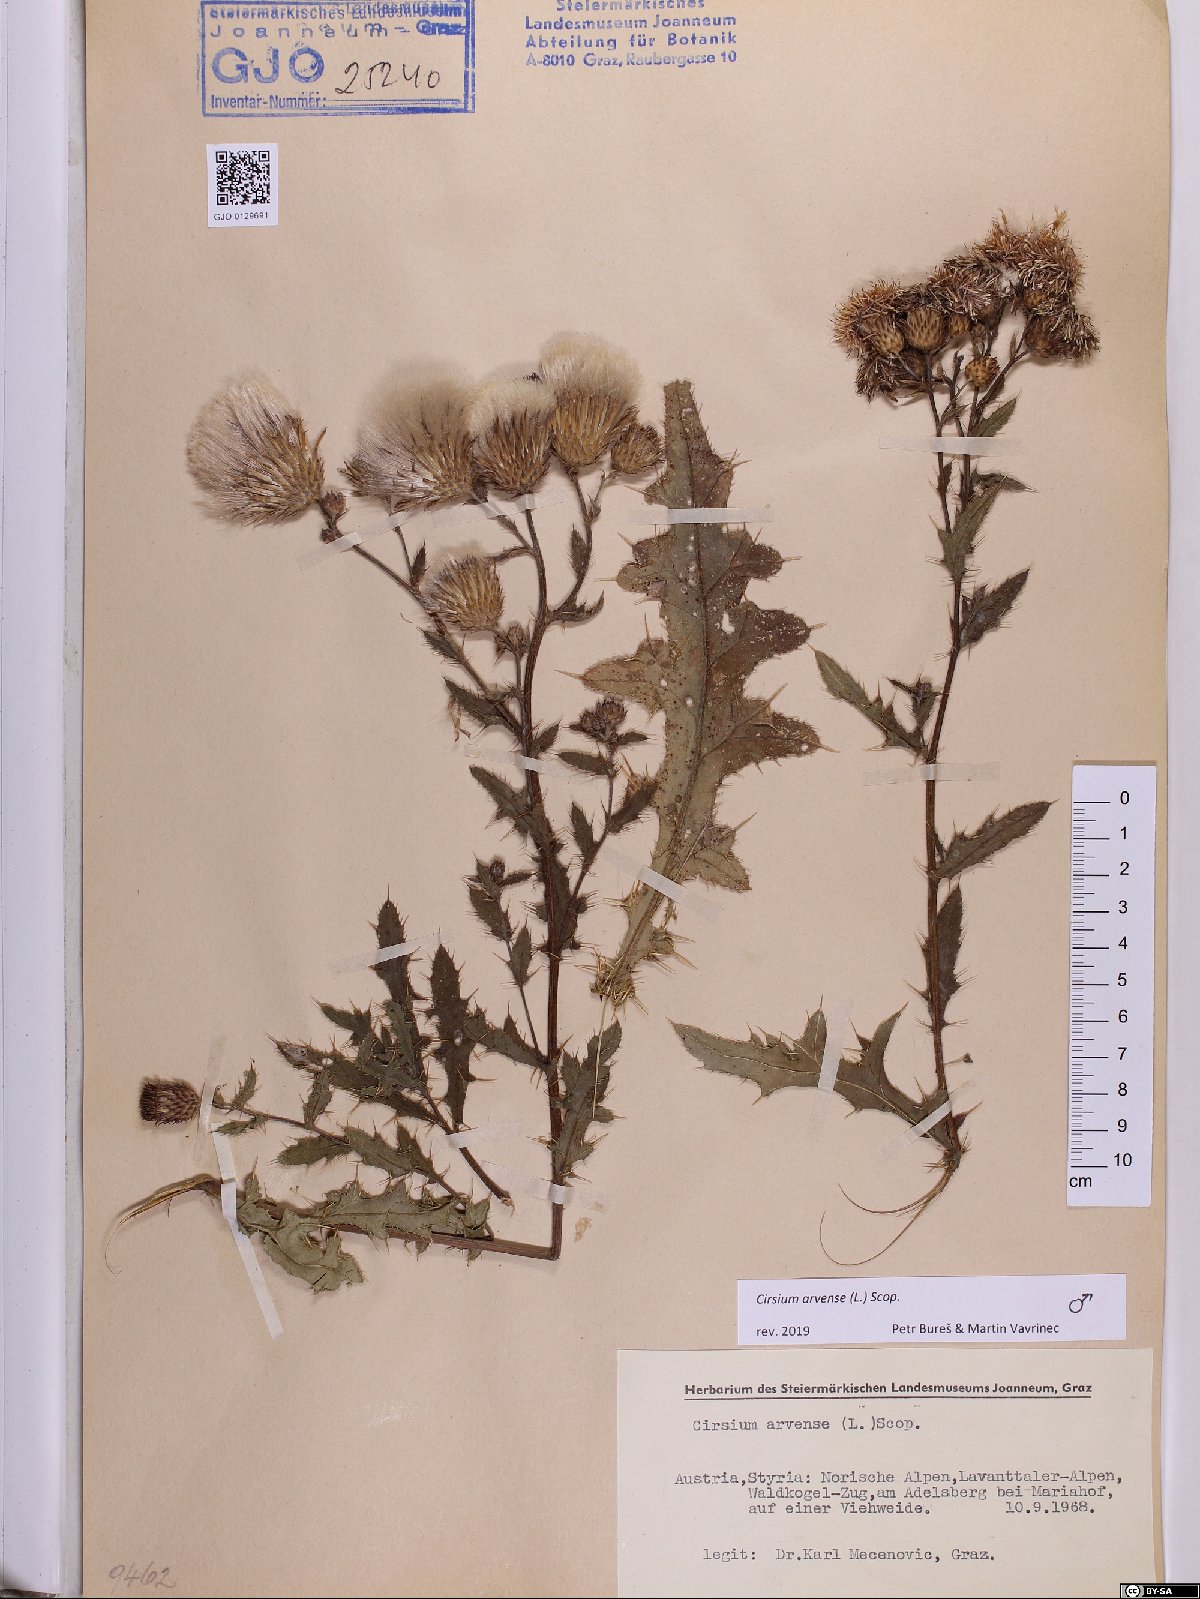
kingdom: Plantae
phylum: Tracheophyta
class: Magnoliopsida
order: Asterales
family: Asteraceae
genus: Cirsium
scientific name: Cirsium arvense
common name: Creeping thistle
